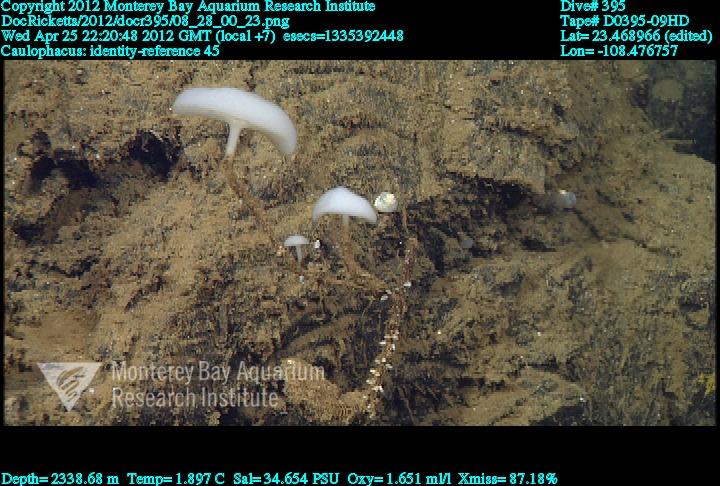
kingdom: Animalia
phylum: Porifera
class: Hexactinellida
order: Lyssacinosida
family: Rossellidae
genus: Caulophacus
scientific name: Caulophacus
